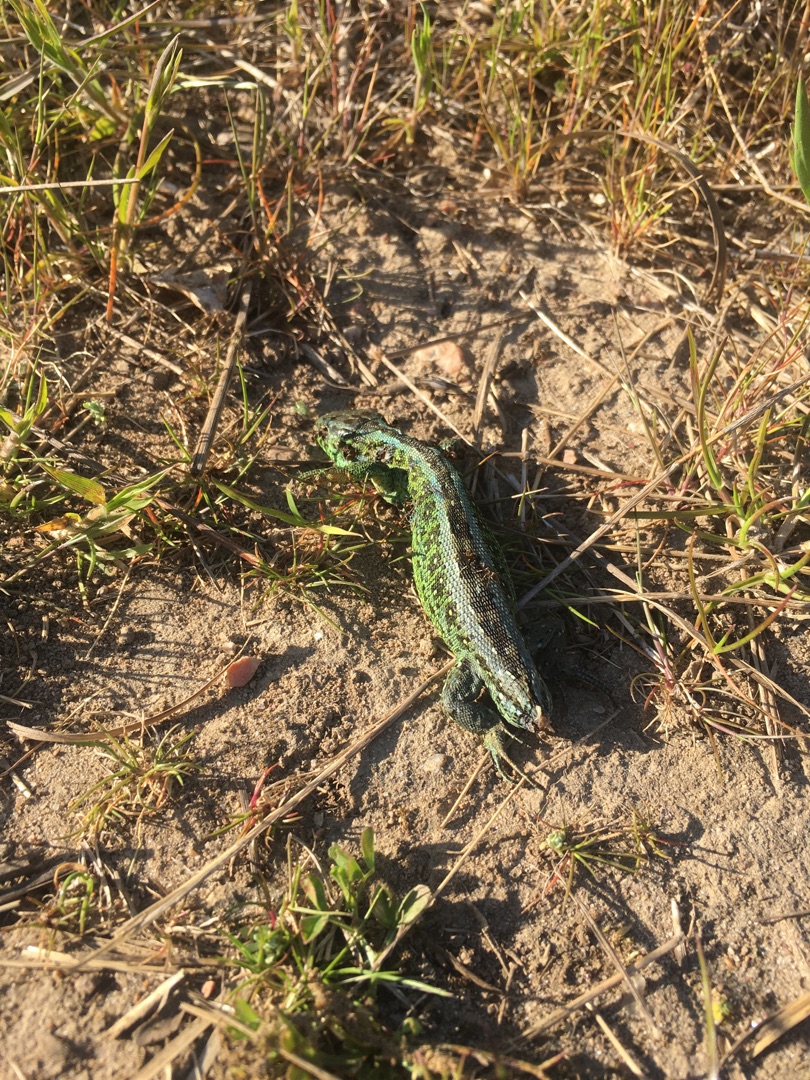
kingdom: Animalia
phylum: Chordata
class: Squamata
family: Lacertidae
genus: Lacerta
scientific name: Lacerta agilis
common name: Markfirben
